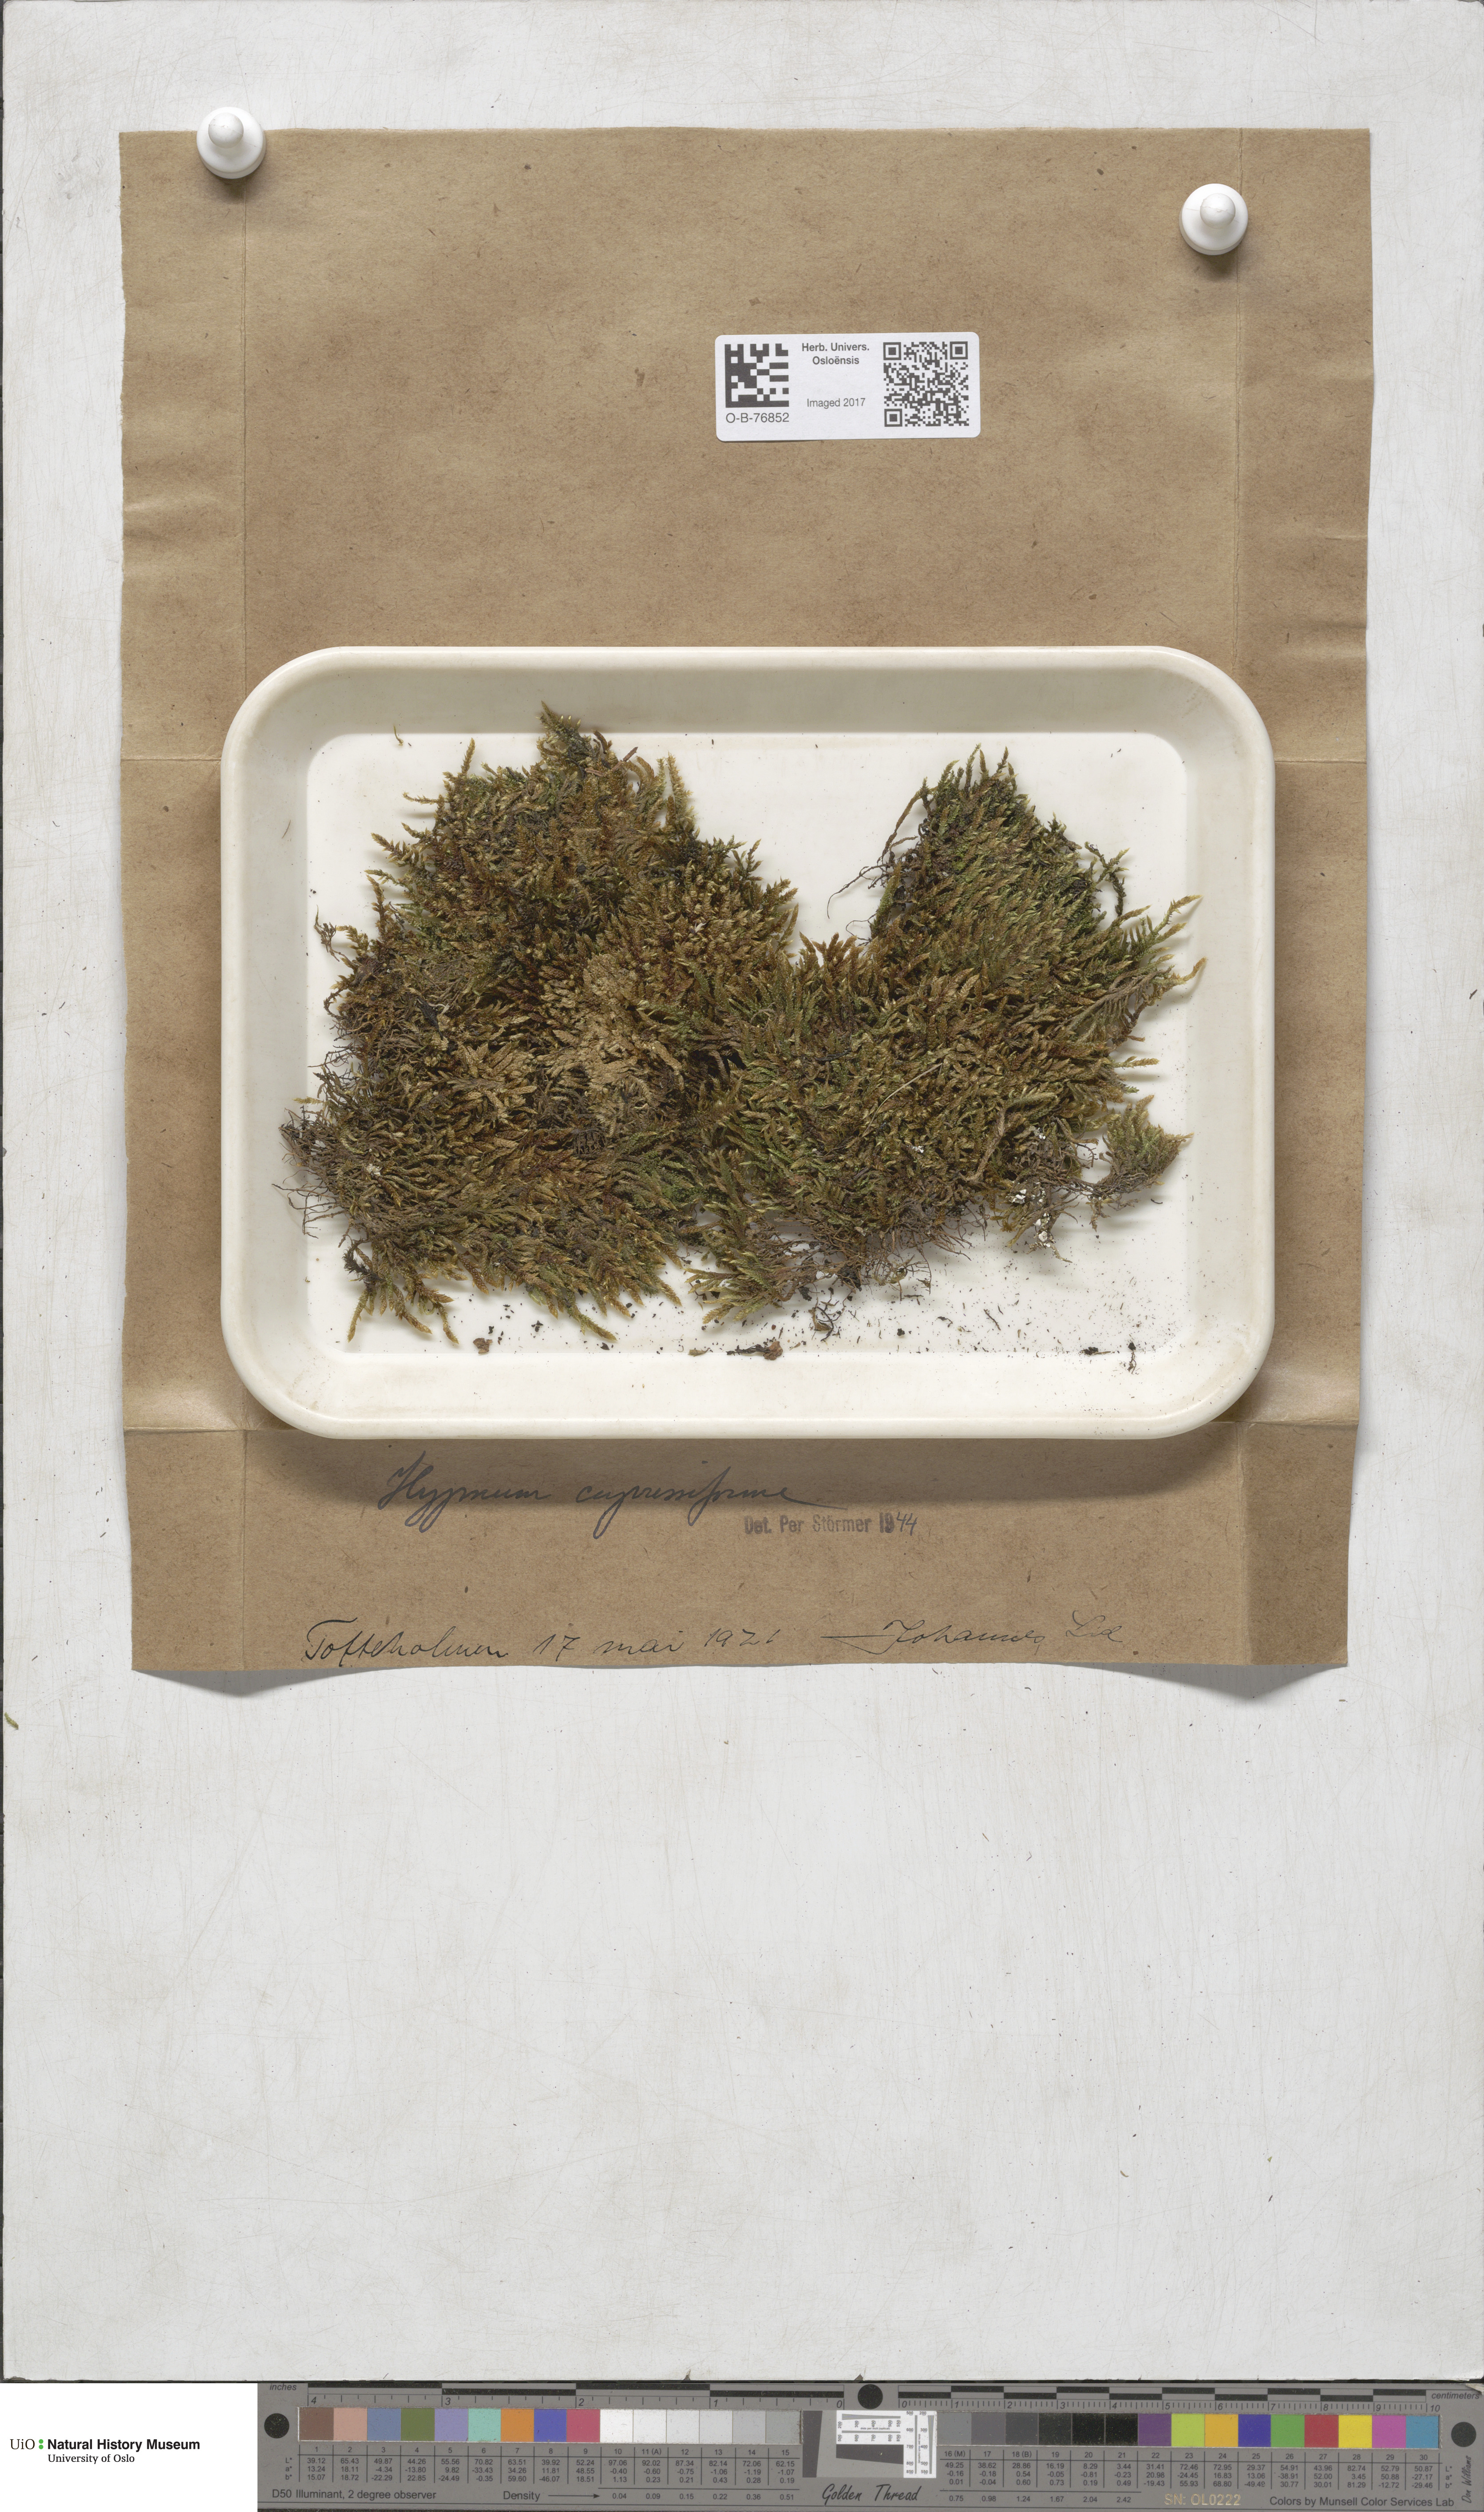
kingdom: Plantae
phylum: Bryophyta
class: Bryopsida
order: Hypnales
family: Hypnaceae
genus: Hypnum
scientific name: Hypnum cupressiforme
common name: Cypress-leaved plait-moss
